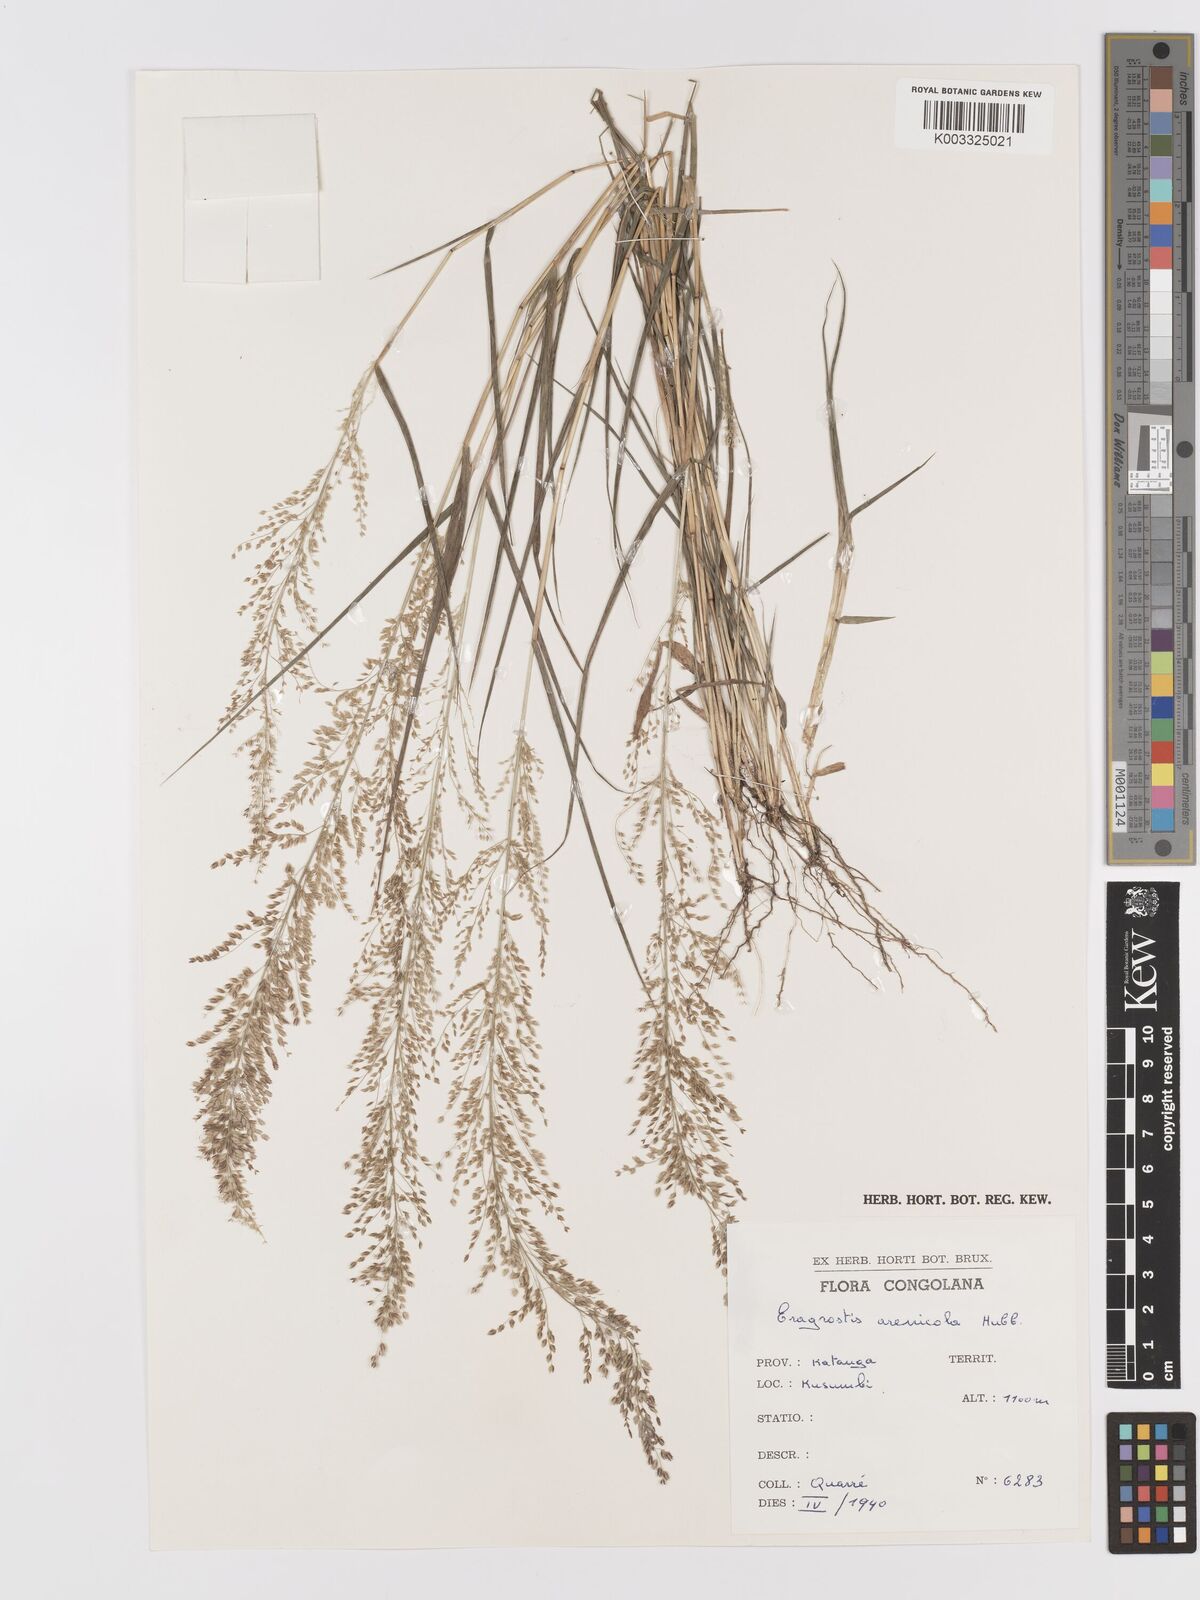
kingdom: Plantae
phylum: Tracheophyta
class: Liliopsida
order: Poales
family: Poaceae
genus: Eragrostis
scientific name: Eragrostis arenicola
